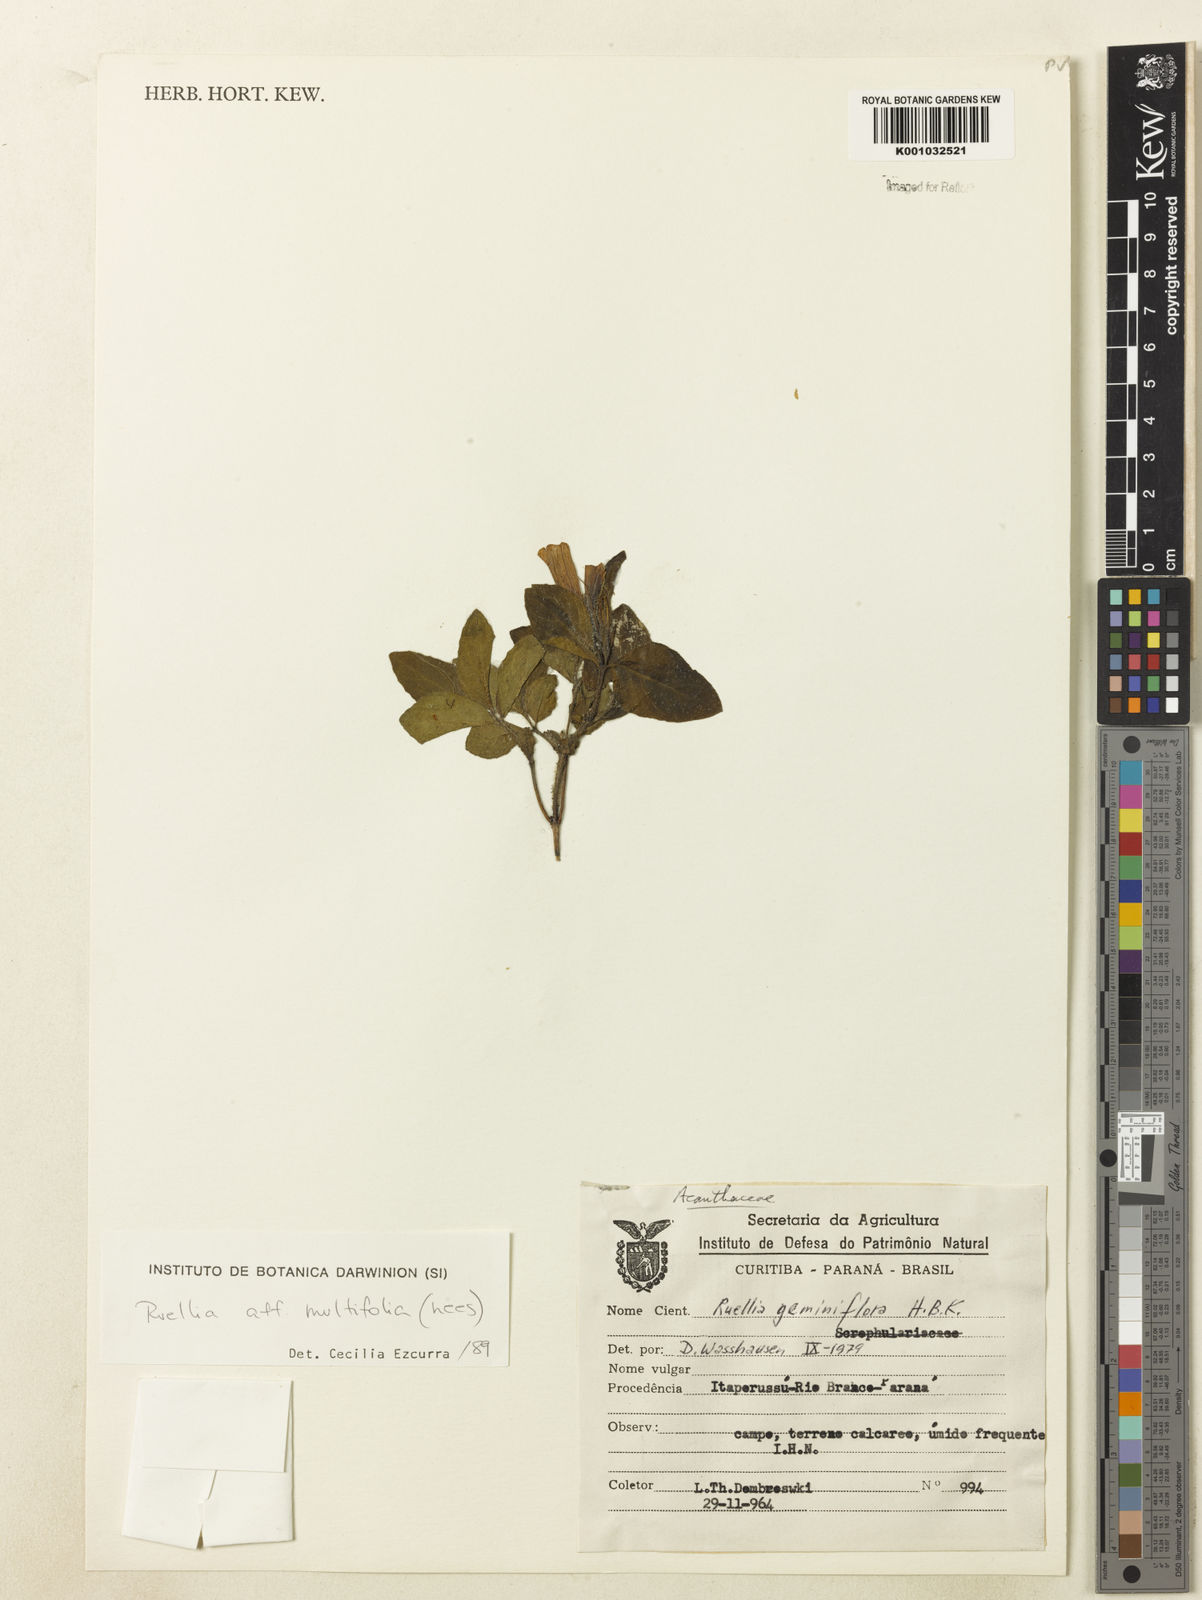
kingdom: Plantae
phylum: Tracheophyta
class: Magnoliopsida
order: Lamiales
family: Acanthaceae
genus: Ruellia
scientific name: Ruellia multifolia
